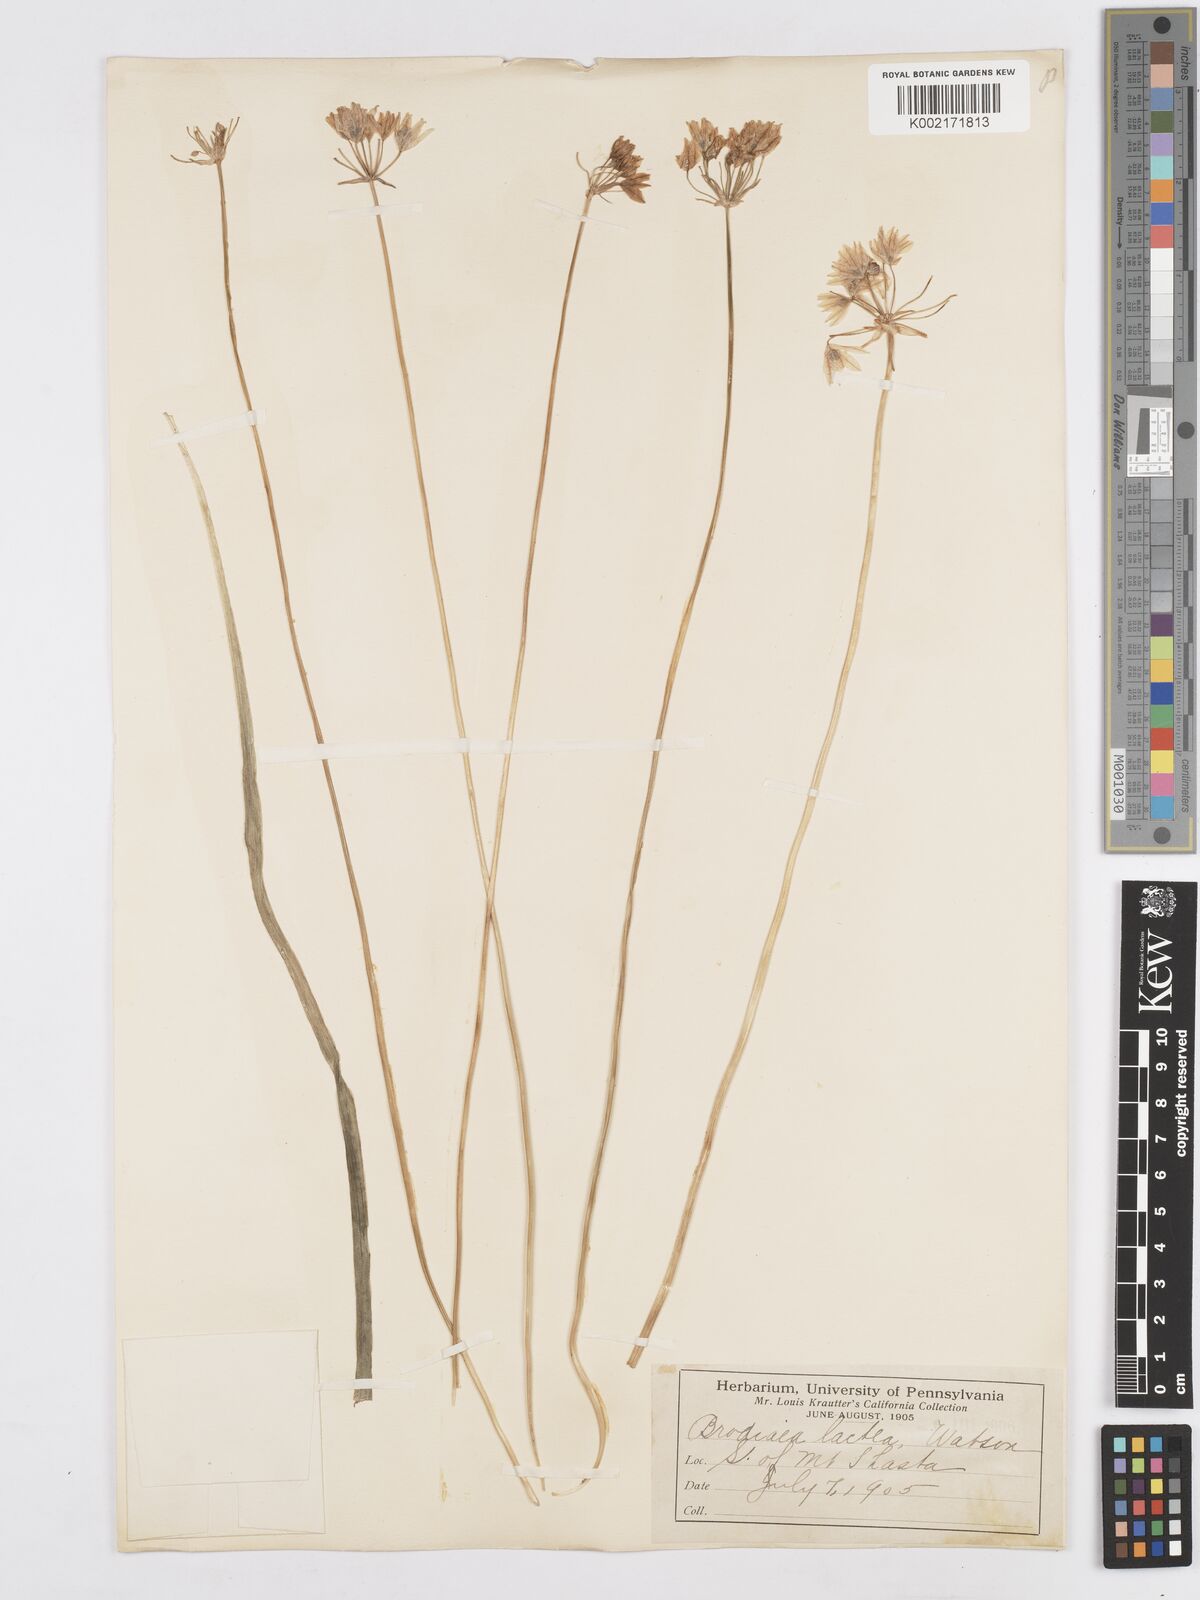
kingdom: Plantae
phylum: Tracheophyta
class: Liliopsida
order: Asparagales
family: Asparagaceae
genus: Triteleia
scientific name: Triteleia hyacinthina
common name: White brodiaea
